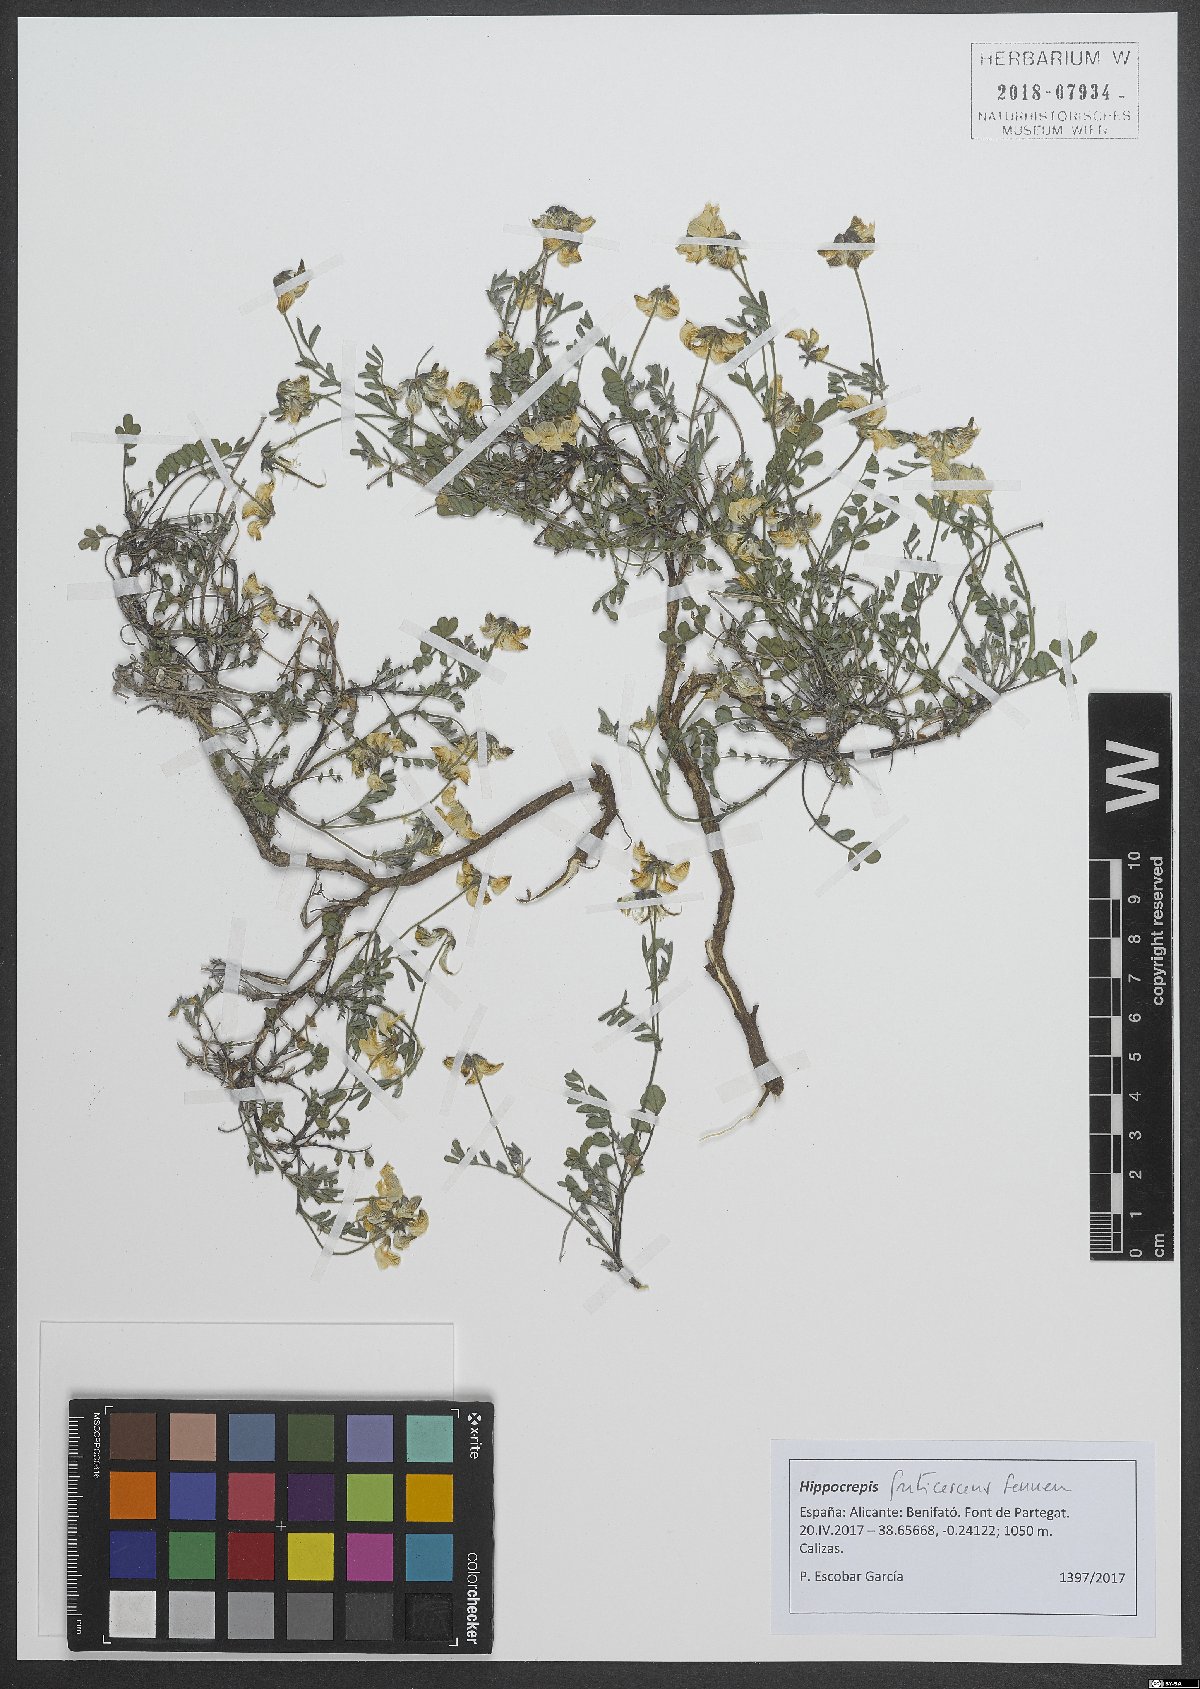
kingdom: Plantae
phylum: Tracheophyta
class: Magnoliopsida
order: Fabales
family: Fabaceae
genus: Hippocrepis
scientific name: Hippocrepis fruticescens
